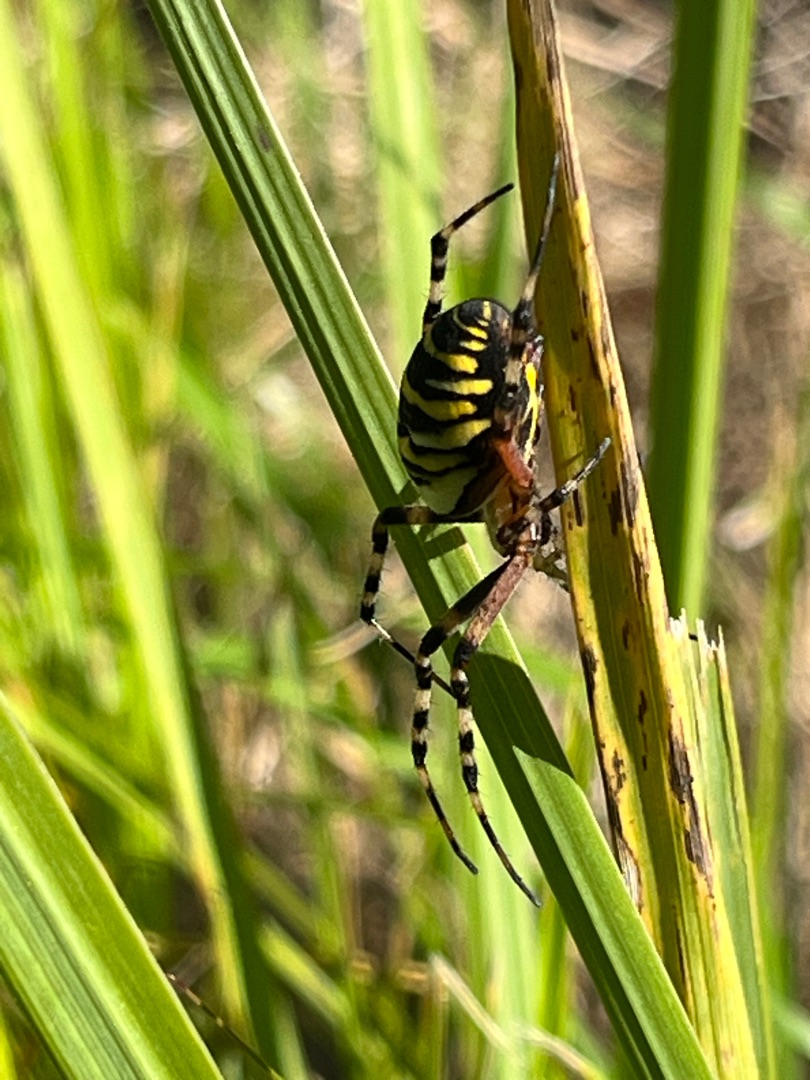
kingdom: Animalia
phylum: Arthropoda
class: Arachnida
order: Araneae
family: Araneidae
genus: Argiope
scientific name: Argiope bruennichi
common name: Hvepseedderkop
